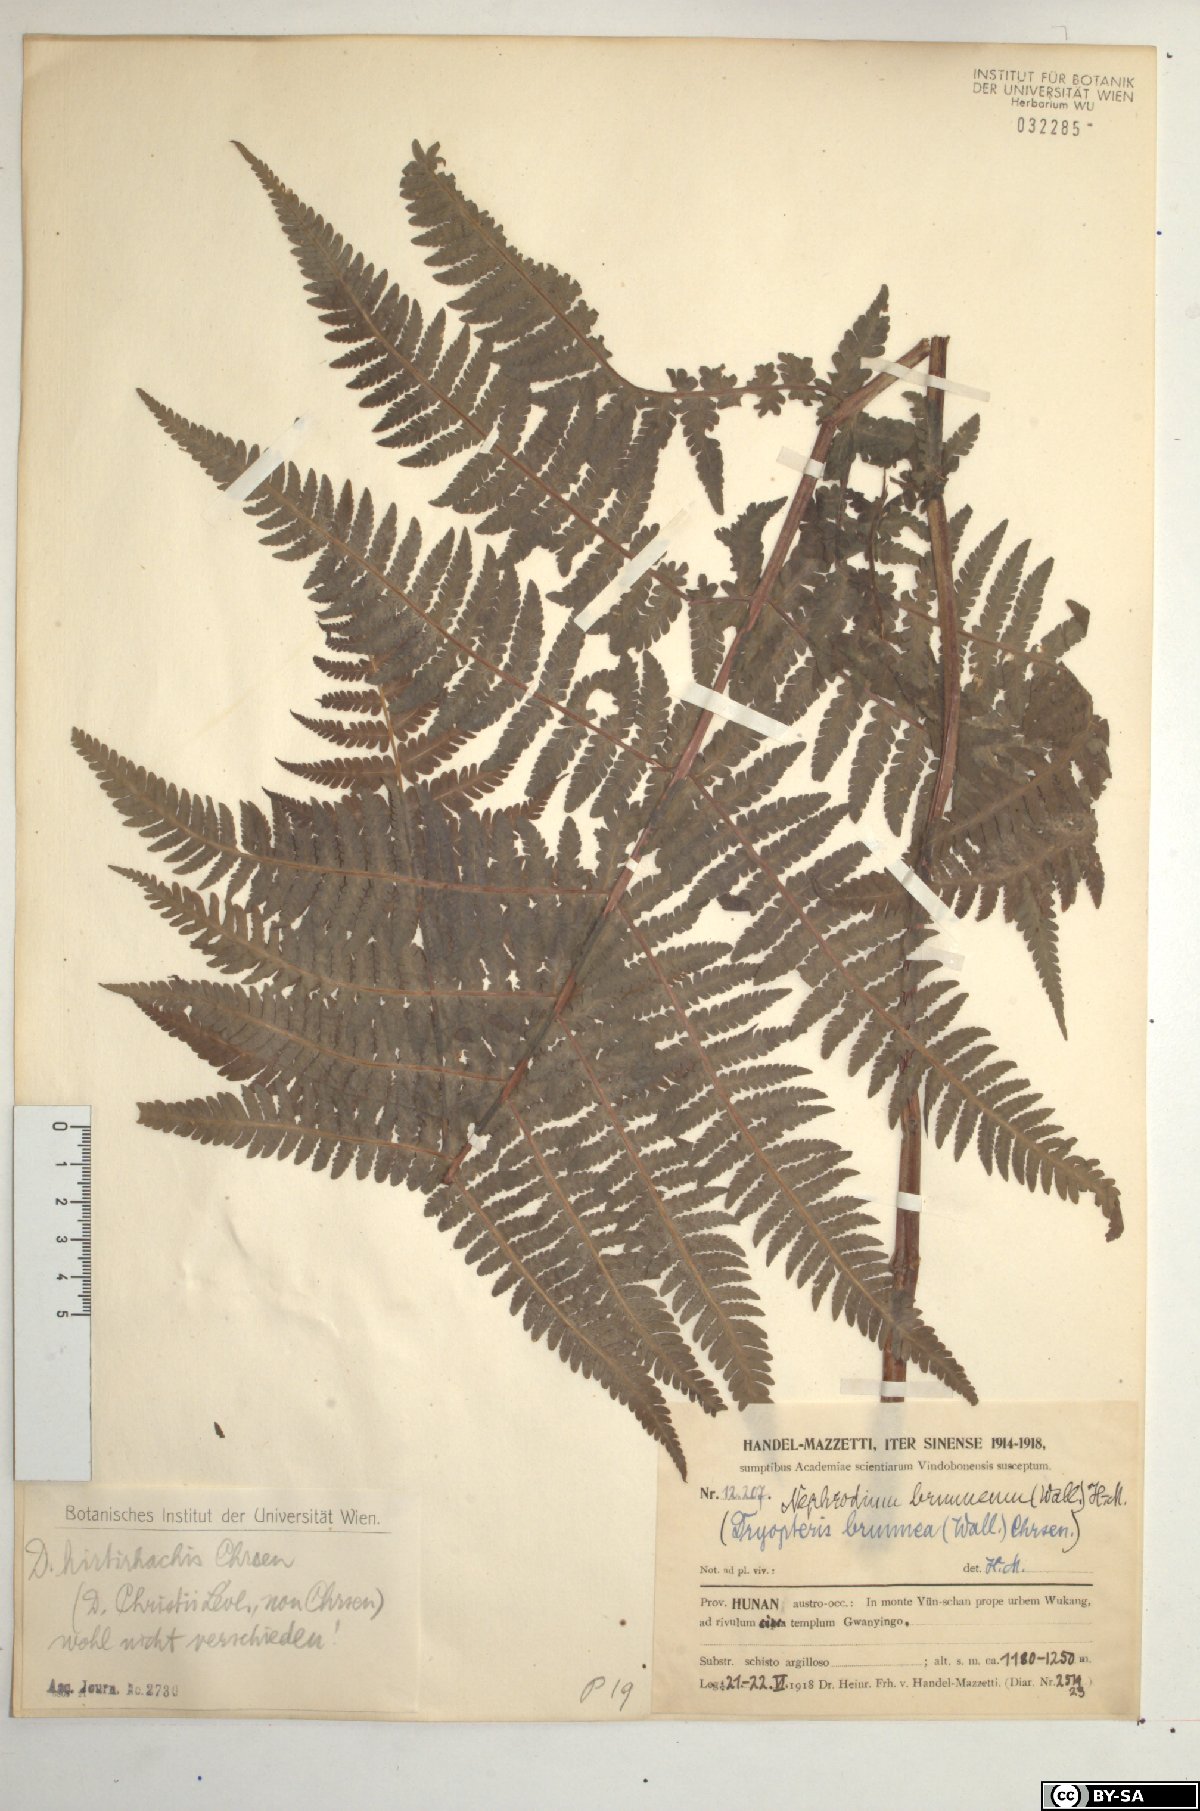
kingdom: Plantae
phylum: Tracheophyta
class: Polypodiopsida
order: Polypodiales
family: Thelypteridaceae
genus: Pseudophegopteris
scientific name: Pseudophegopteris pyrrhorachis
